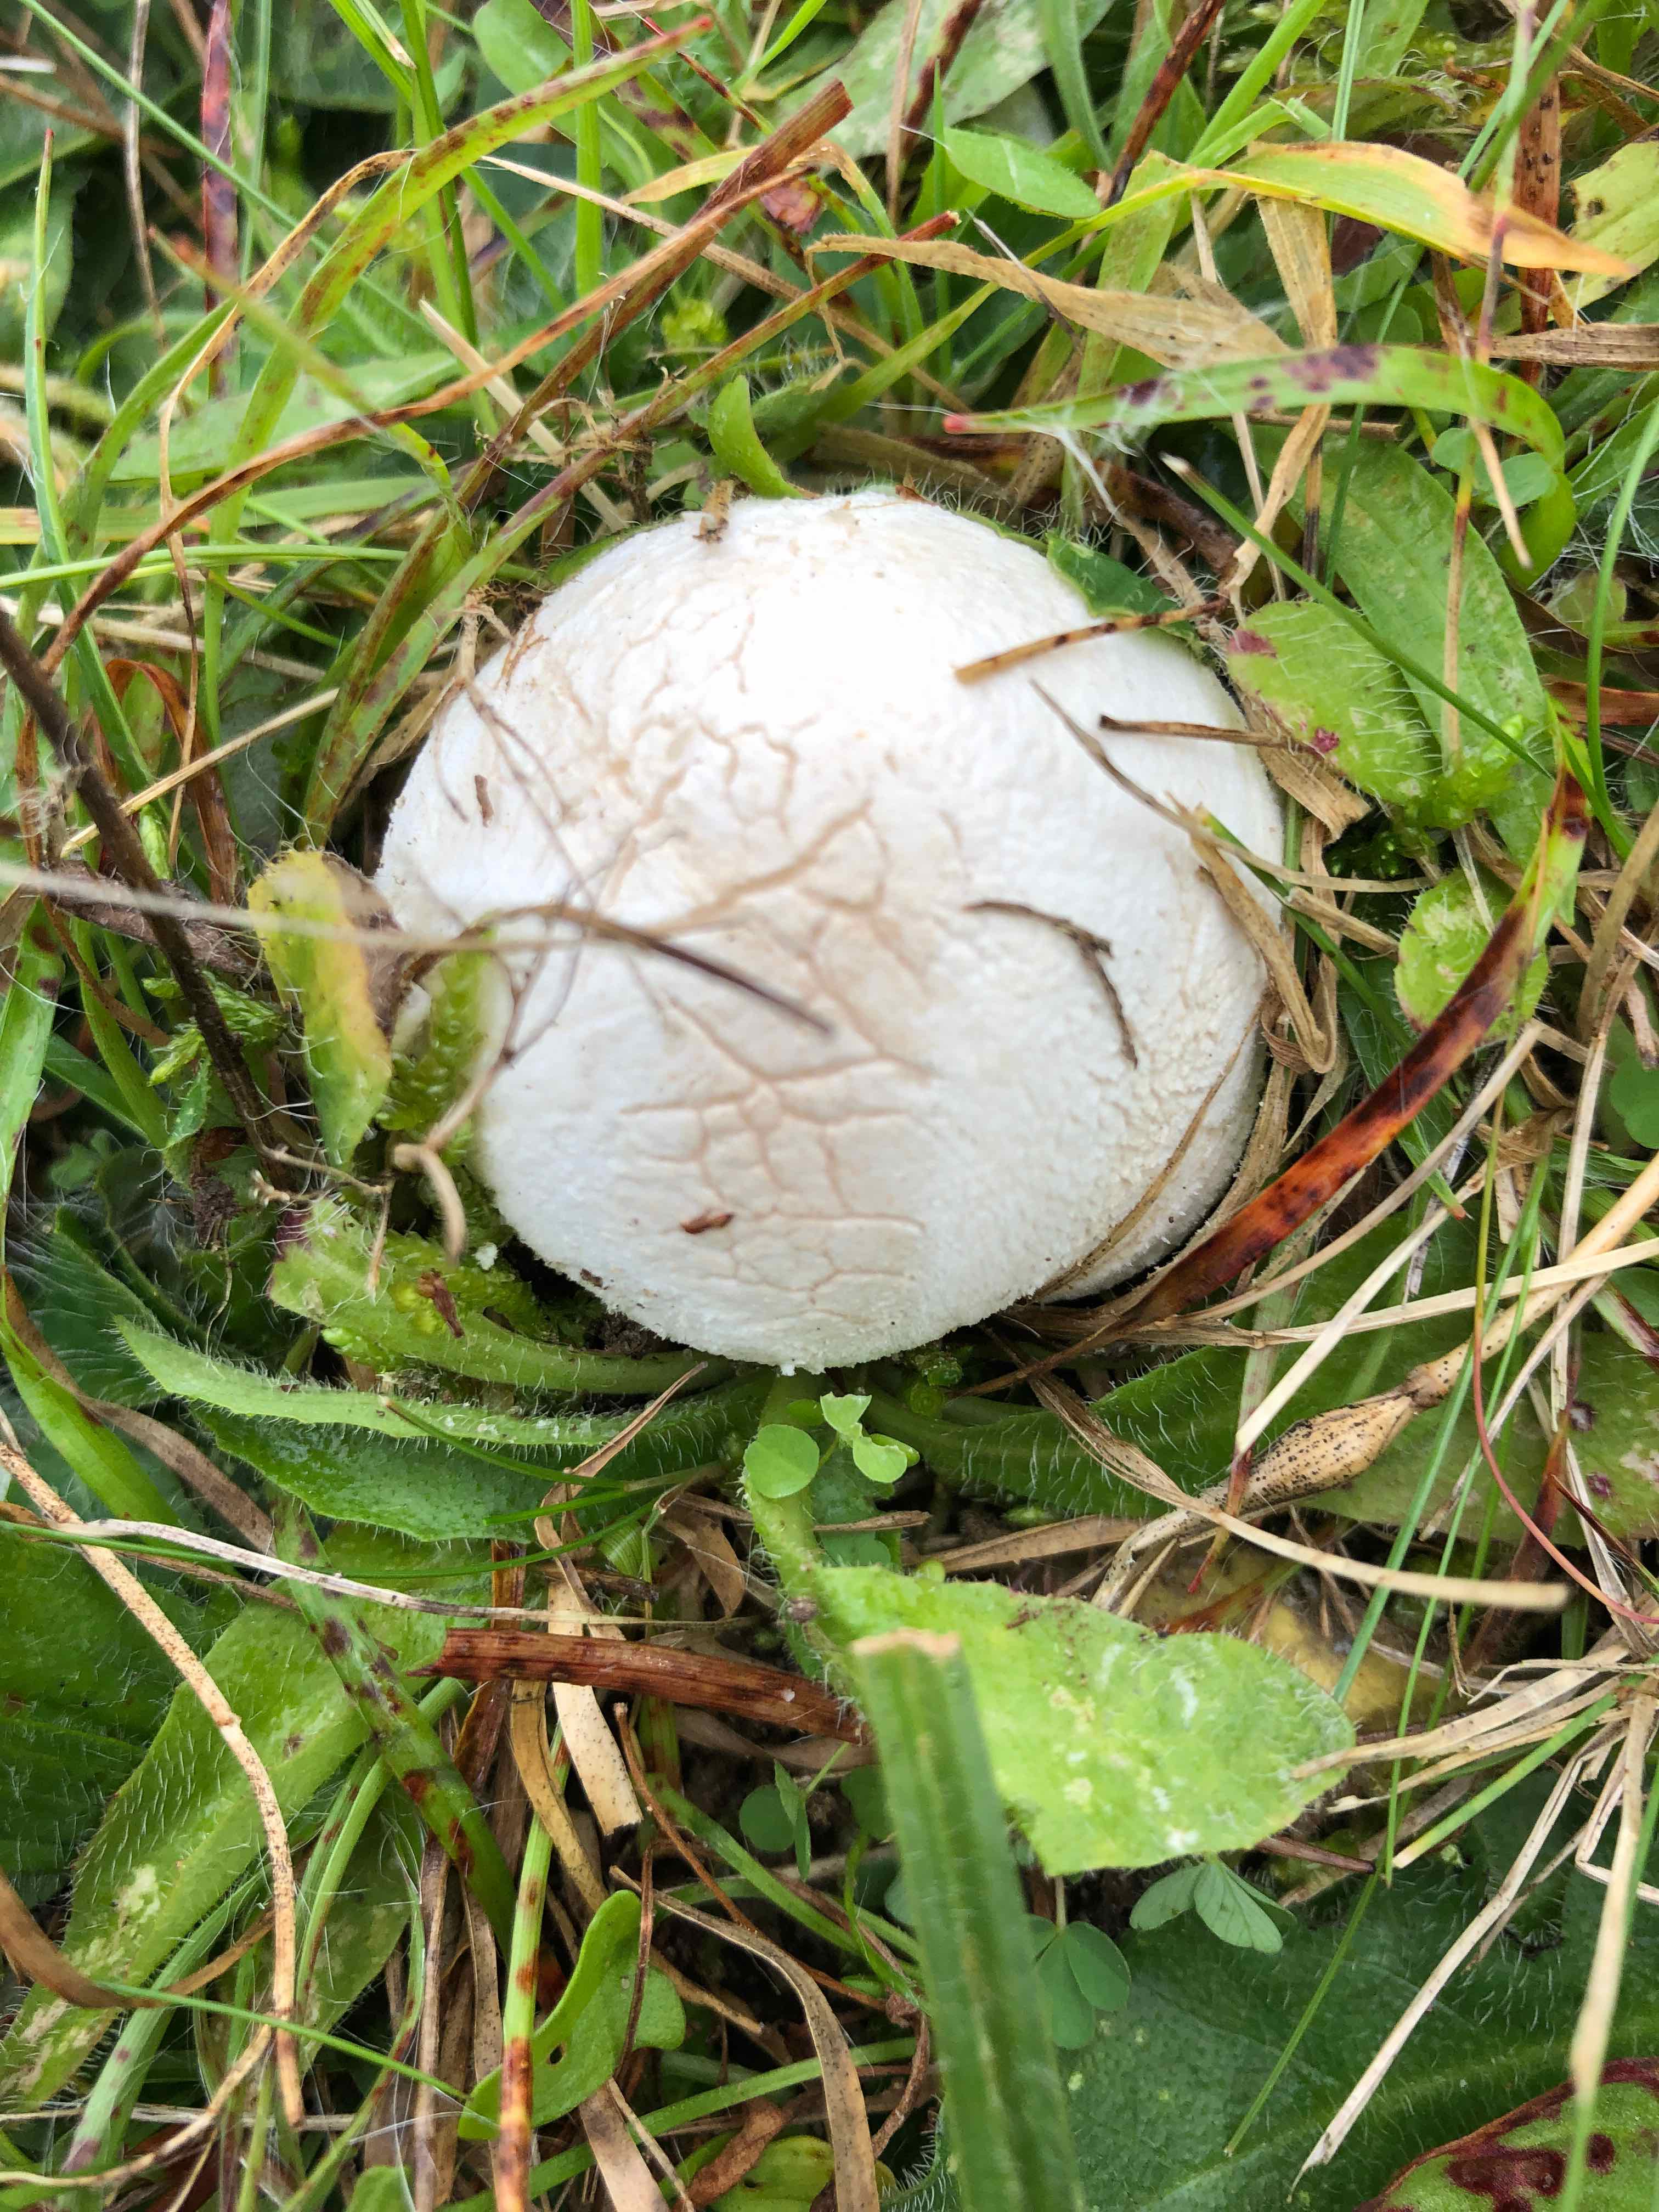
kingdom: Fungi
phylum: Basidiomycota
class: Agaricomycetes
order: Agaricales
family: Lycoperdaceae
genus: Bovista
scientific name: Bovista
